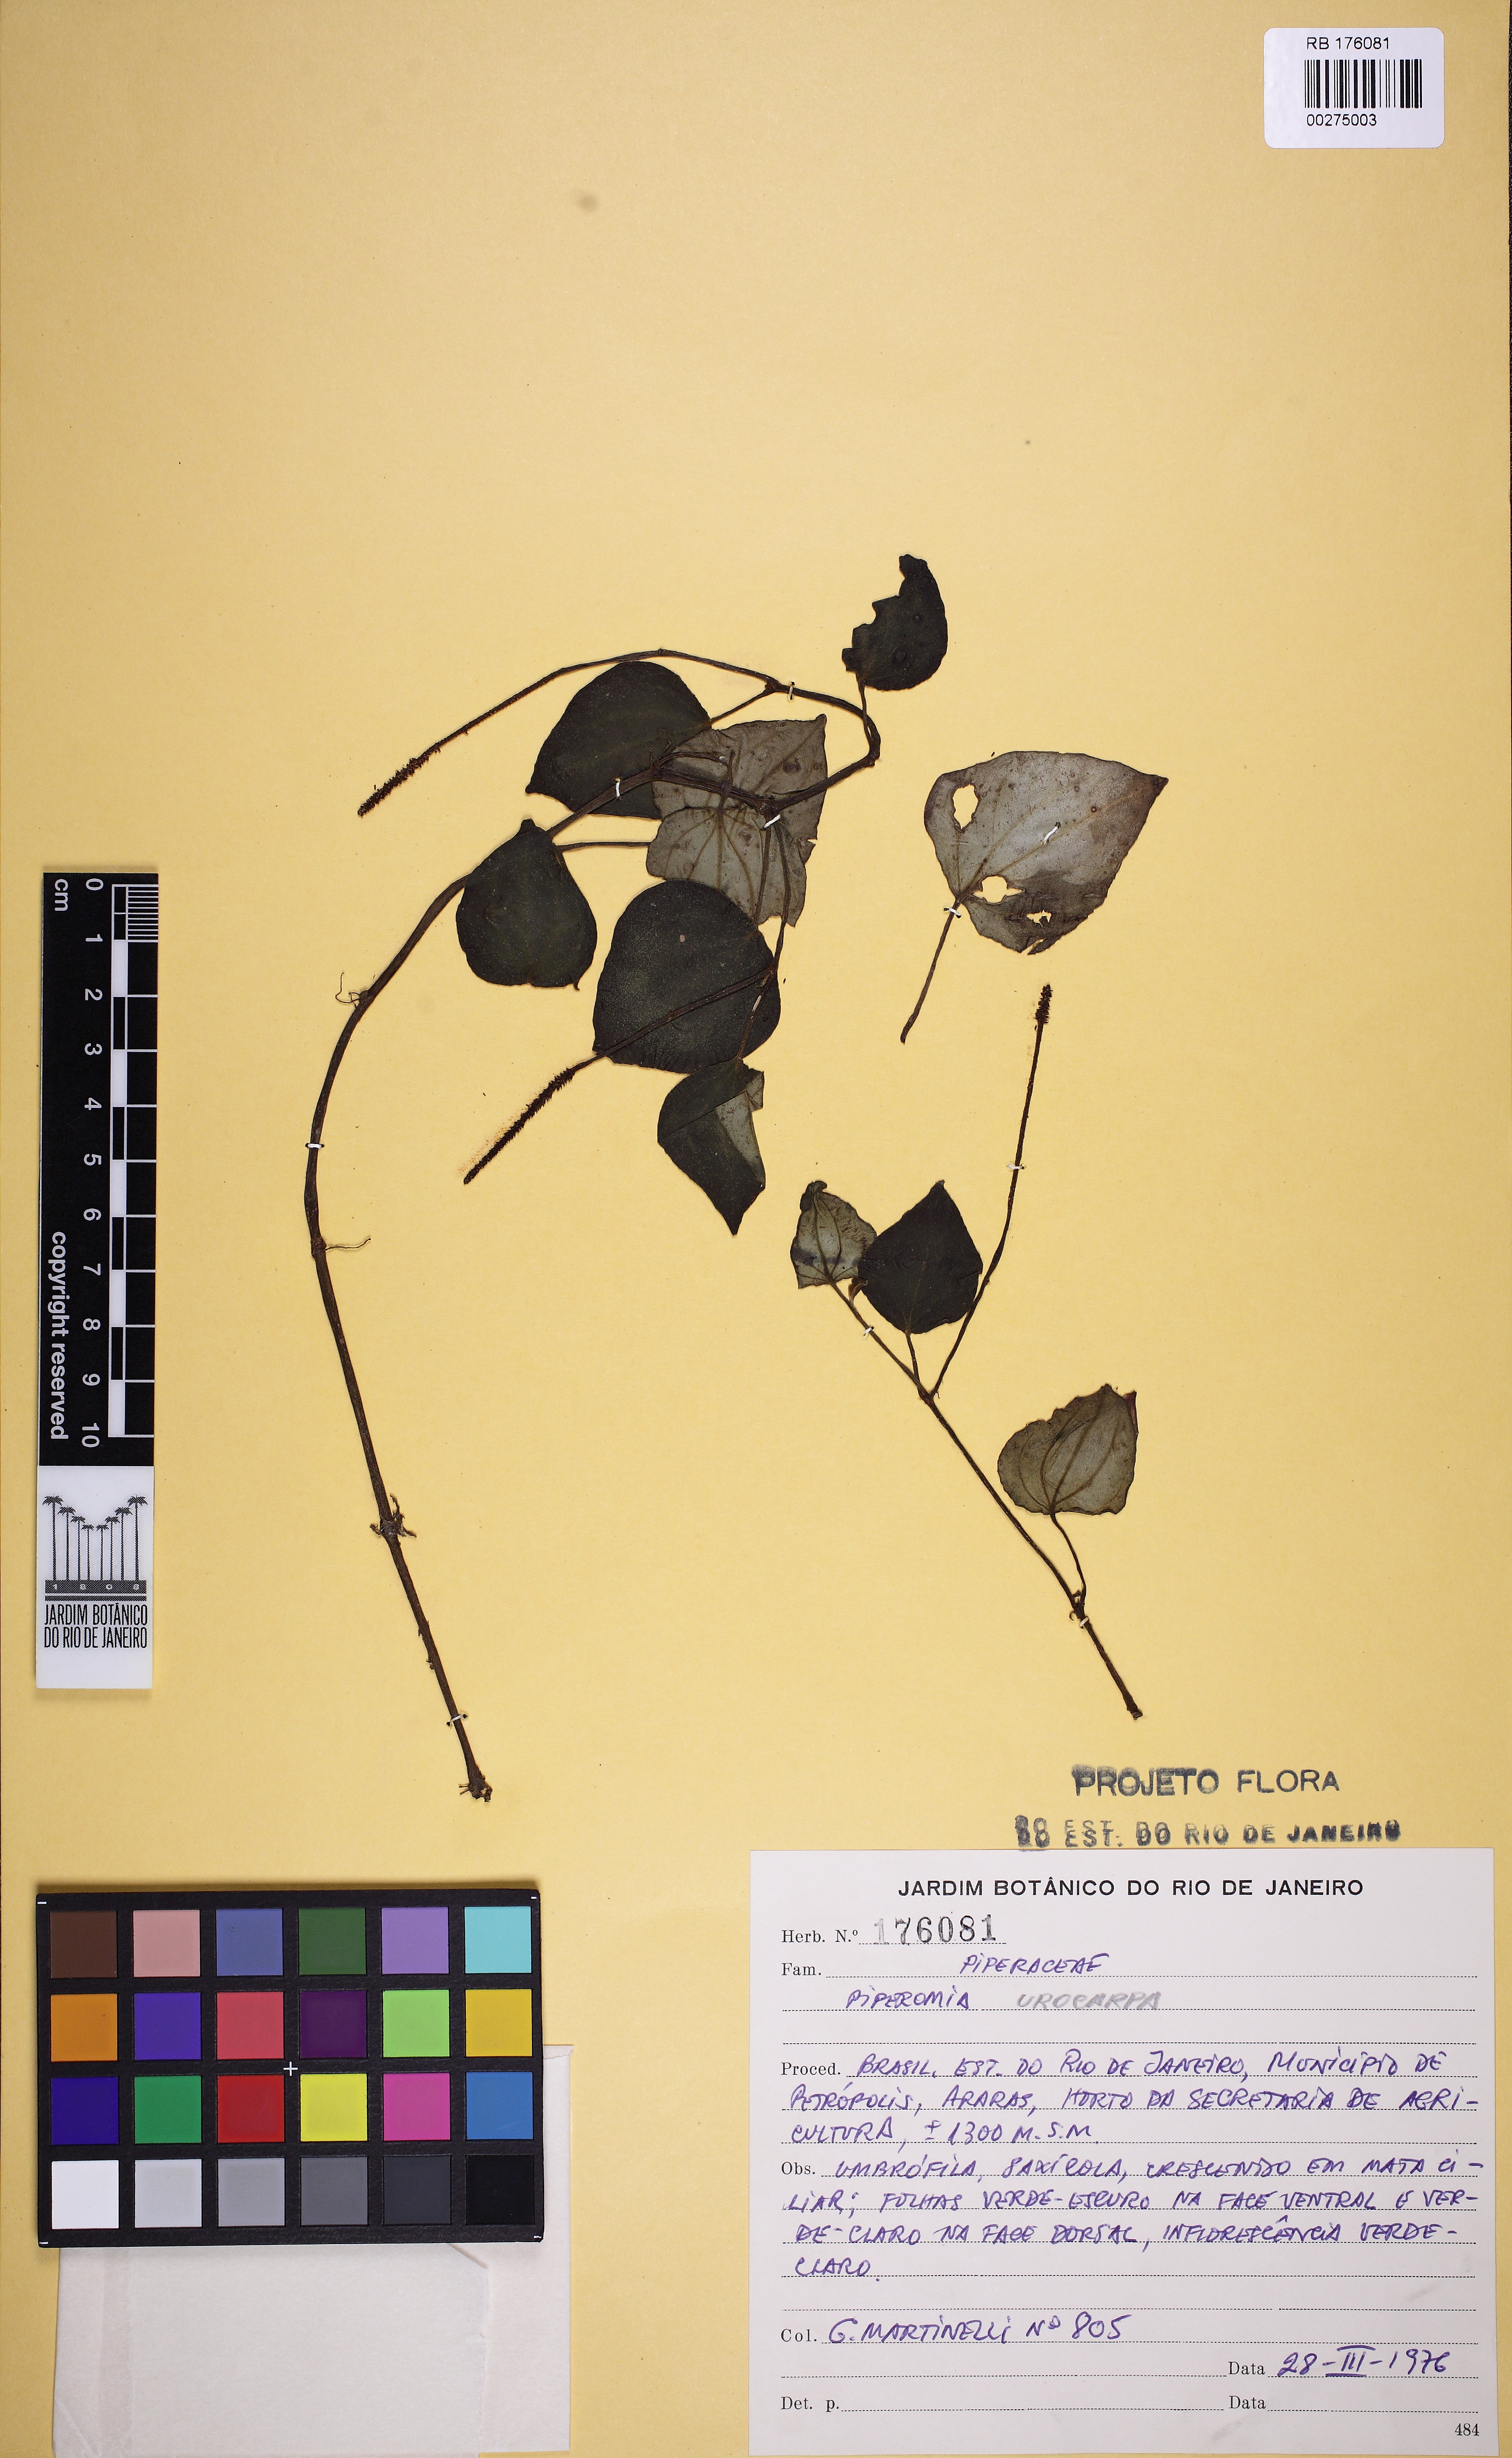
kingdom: Plantae
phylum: Tracheophyta
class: Magnoliopsida
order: Piperales
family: Piperaceae
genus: Peperomia
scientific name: Peperomia urocarpa
